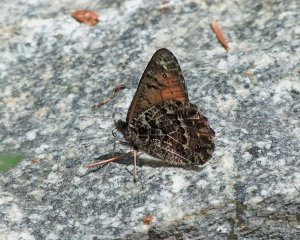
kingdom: Animalia
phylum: Arthropoda
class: Insecta
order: Lepidoptera
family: Nymphalidae
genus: Oeneis
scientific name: Oeneis chryxus
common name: Chryxus Arctic
